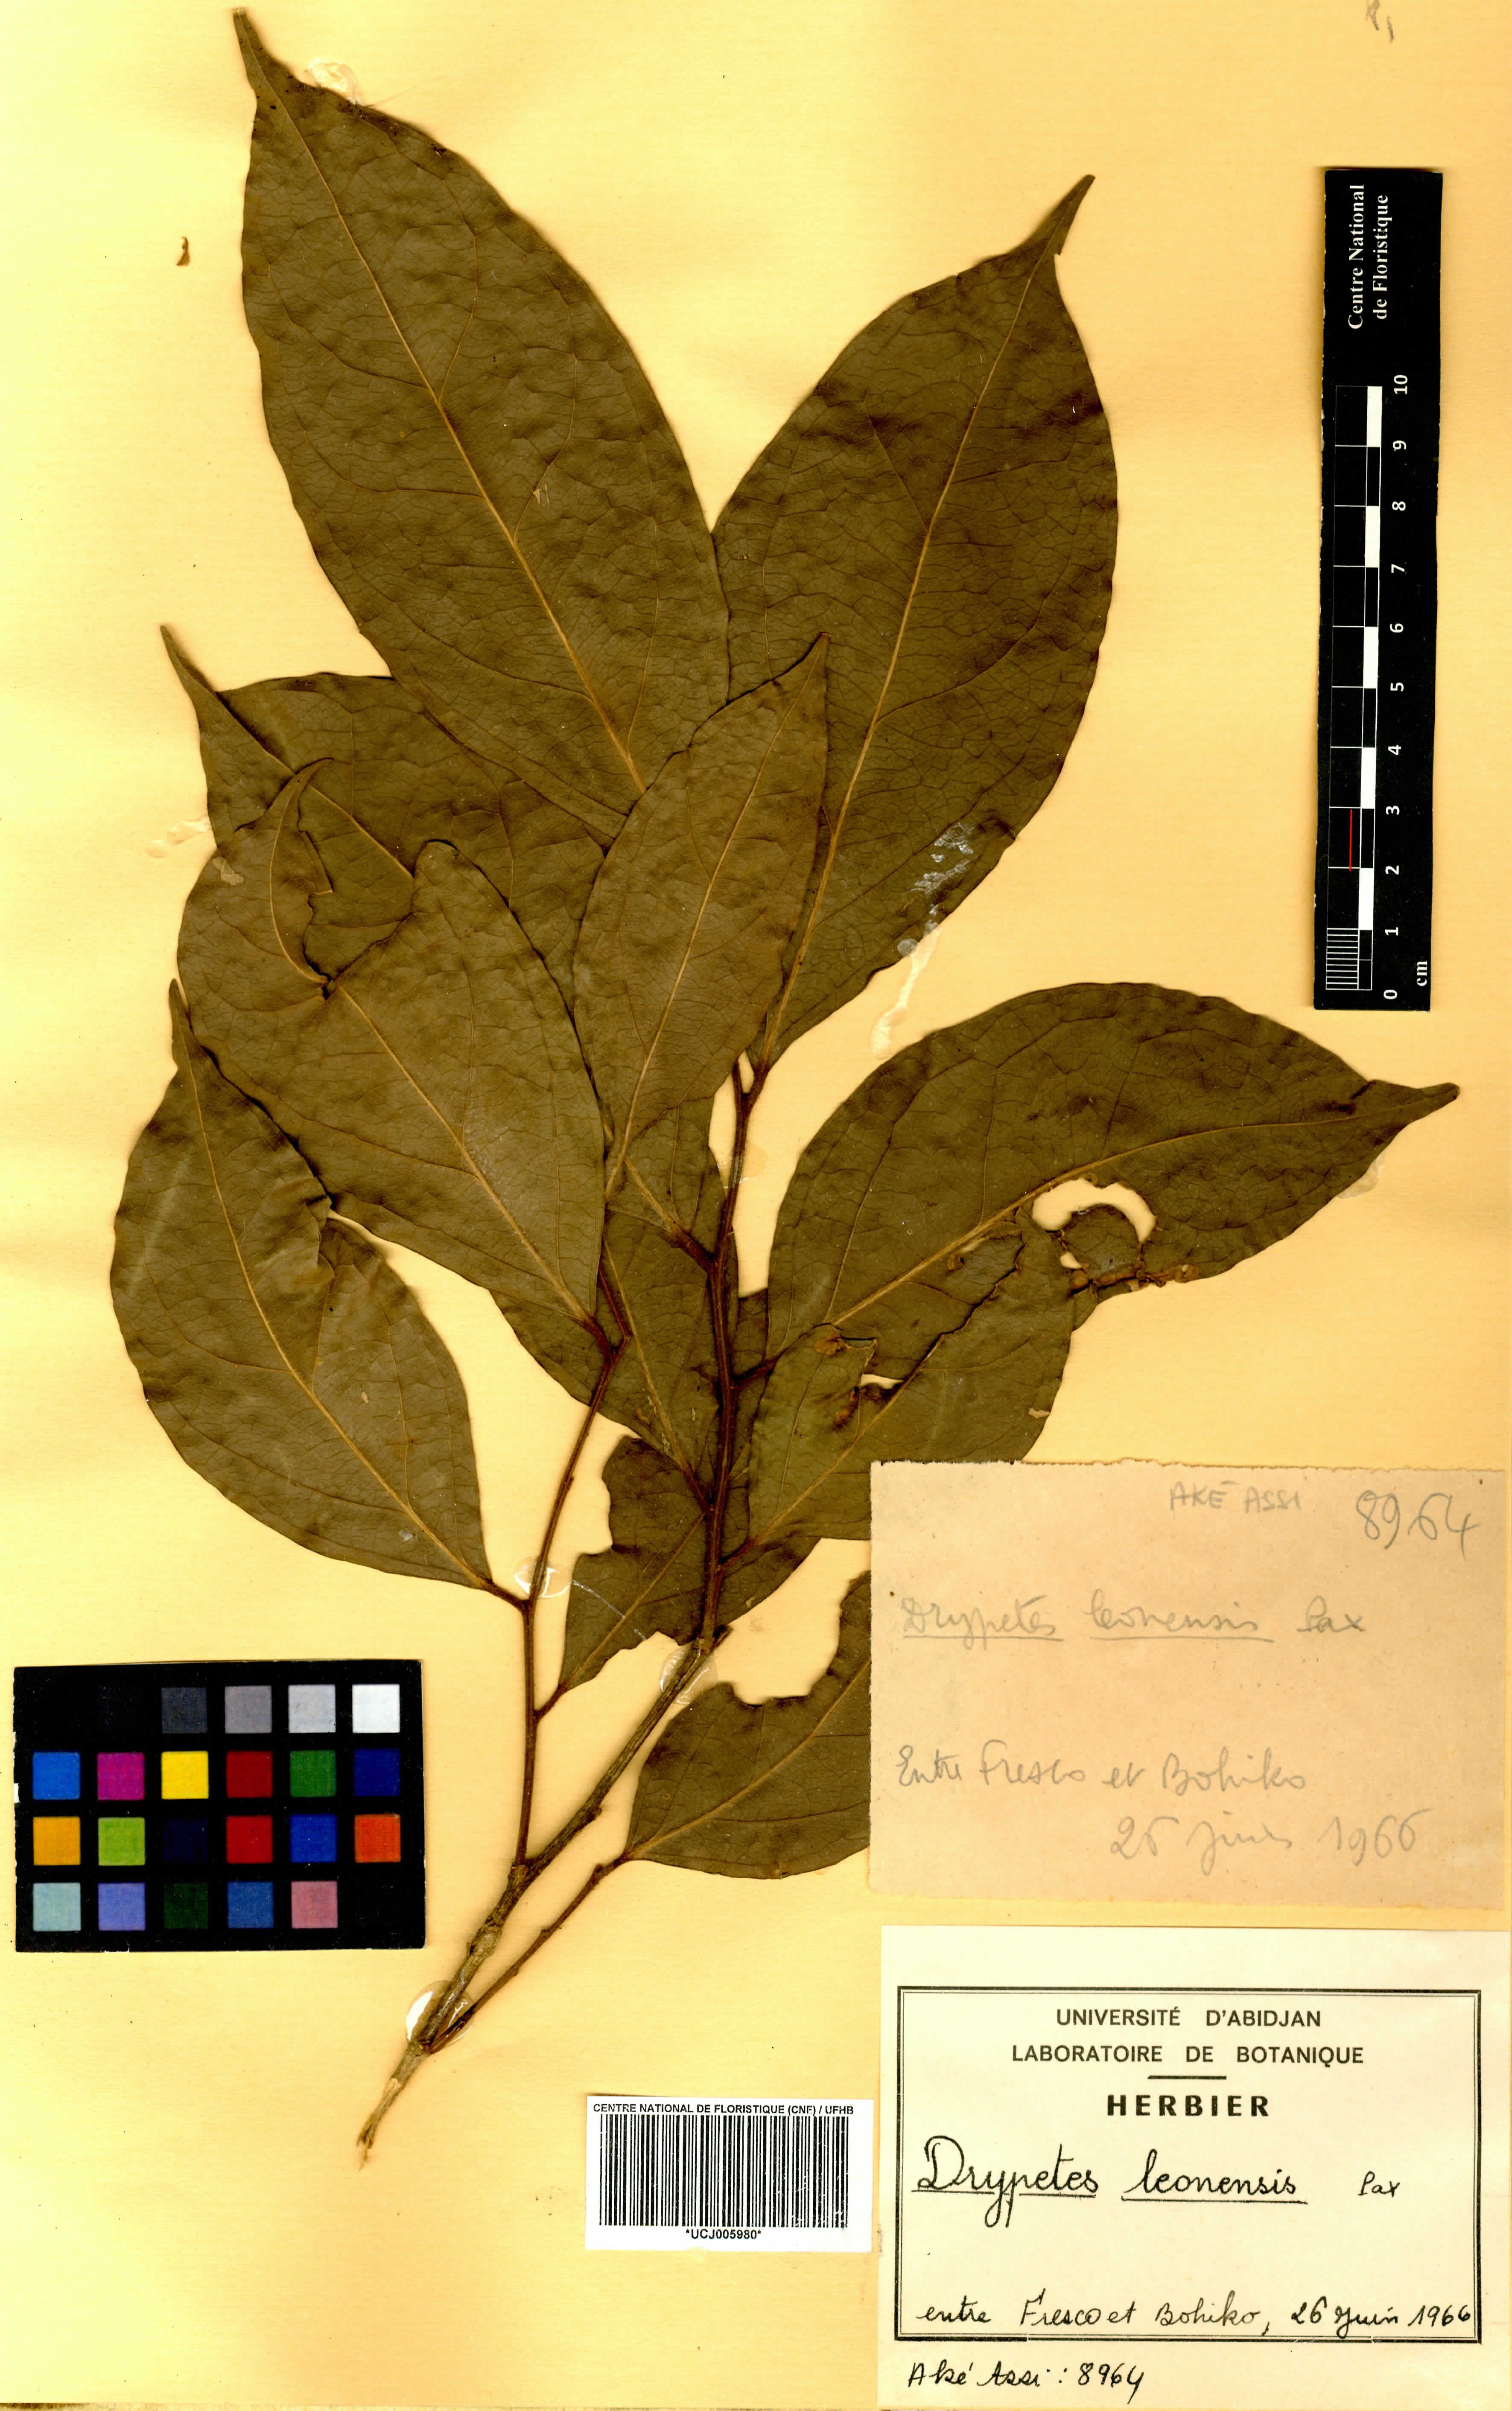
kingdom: Plantae
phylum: Tracheophyta
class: Magnoliopsida
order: Malpighiales
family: Putranjivaceae
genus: Drypetes
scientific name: Drypetes leonensis
